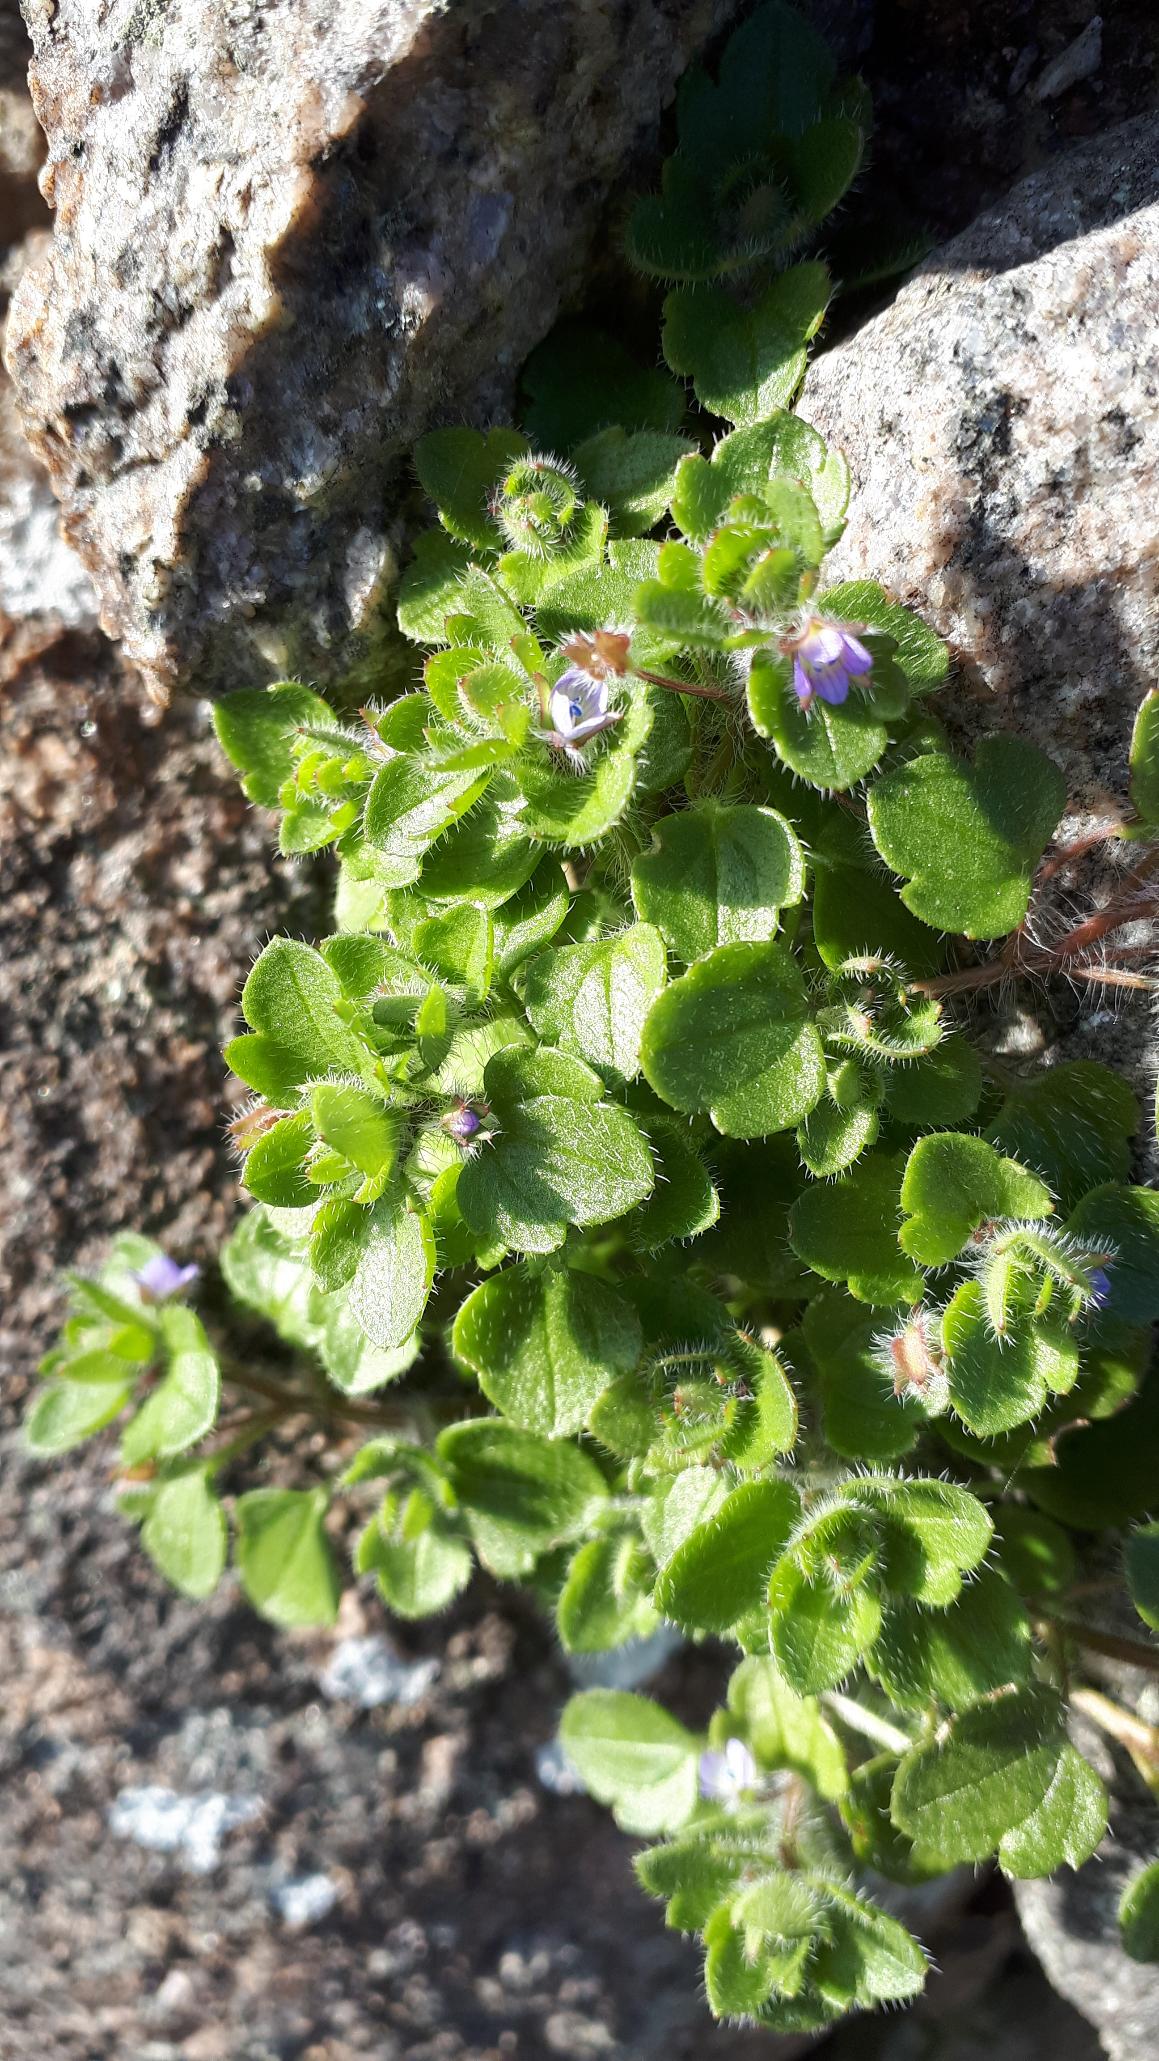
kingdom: Plantae
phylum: Tracheophyta
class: Magnoliopsida
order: Lamiales
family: Plantaginaceae
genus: Veronica
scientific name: Veronica hederifolia
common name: Vedbend-ærenpris
